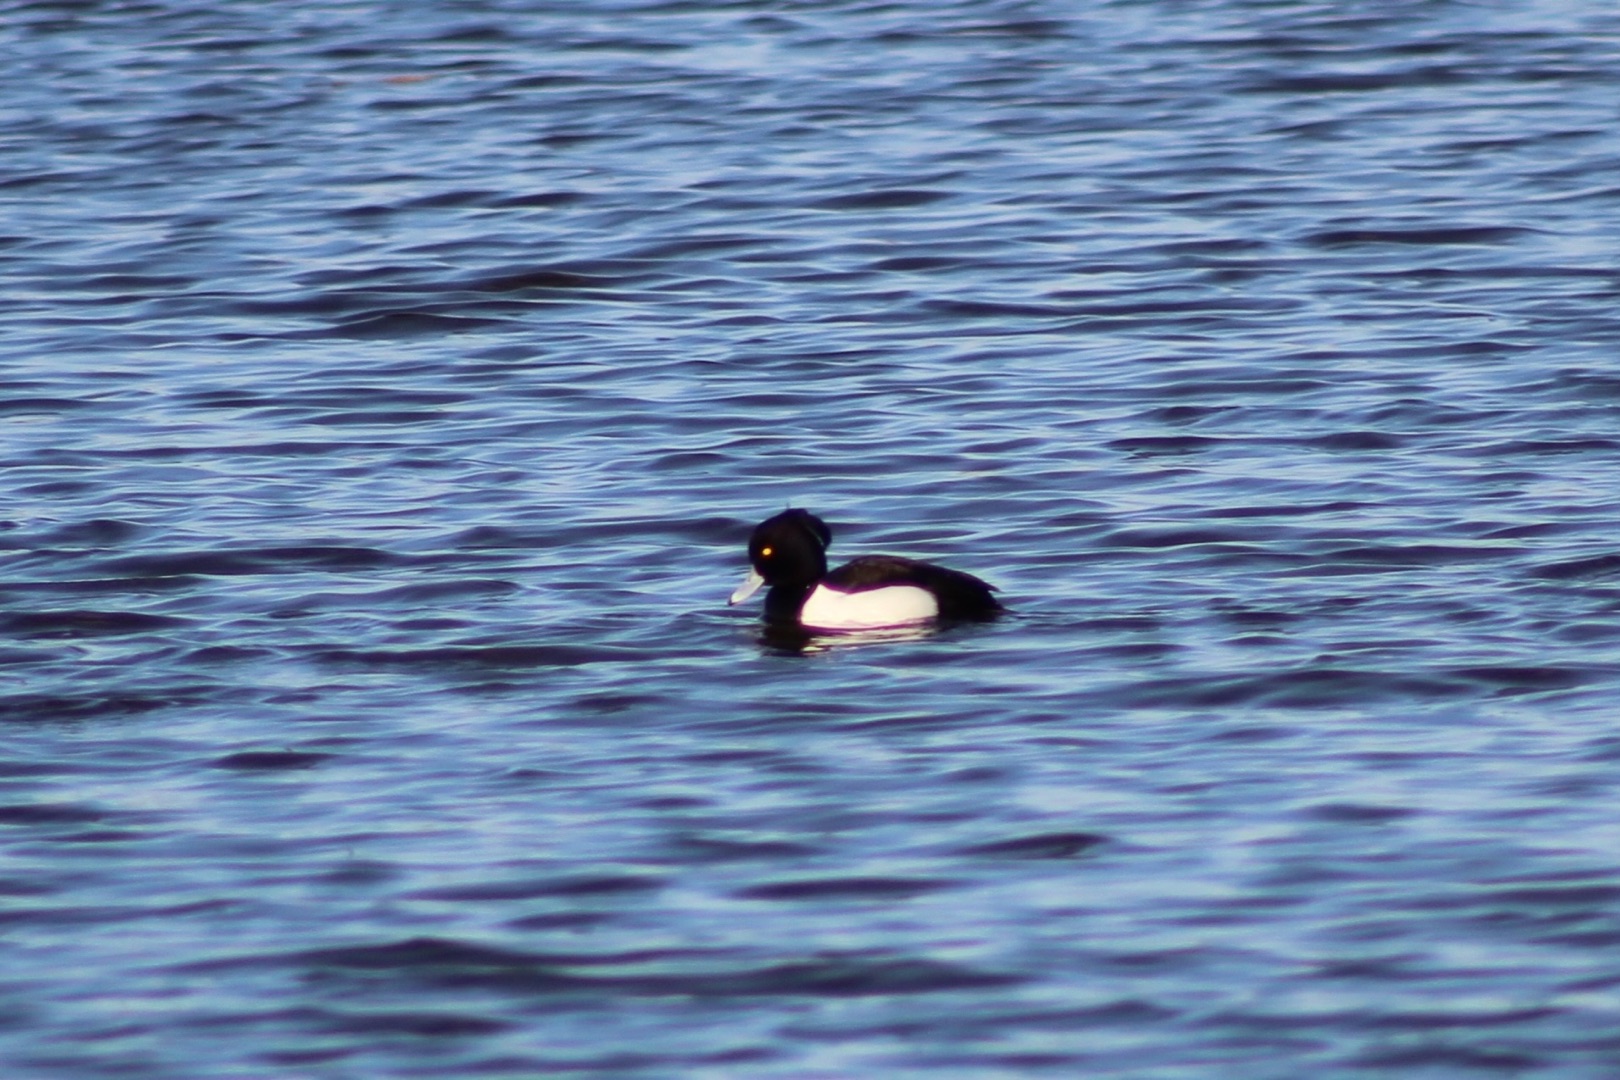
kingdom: Animalia
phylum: Chordata
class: Aves
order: Anseriformes
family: Anatidae
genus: Aythya
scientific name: Aythya fuligula
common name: Troldand
